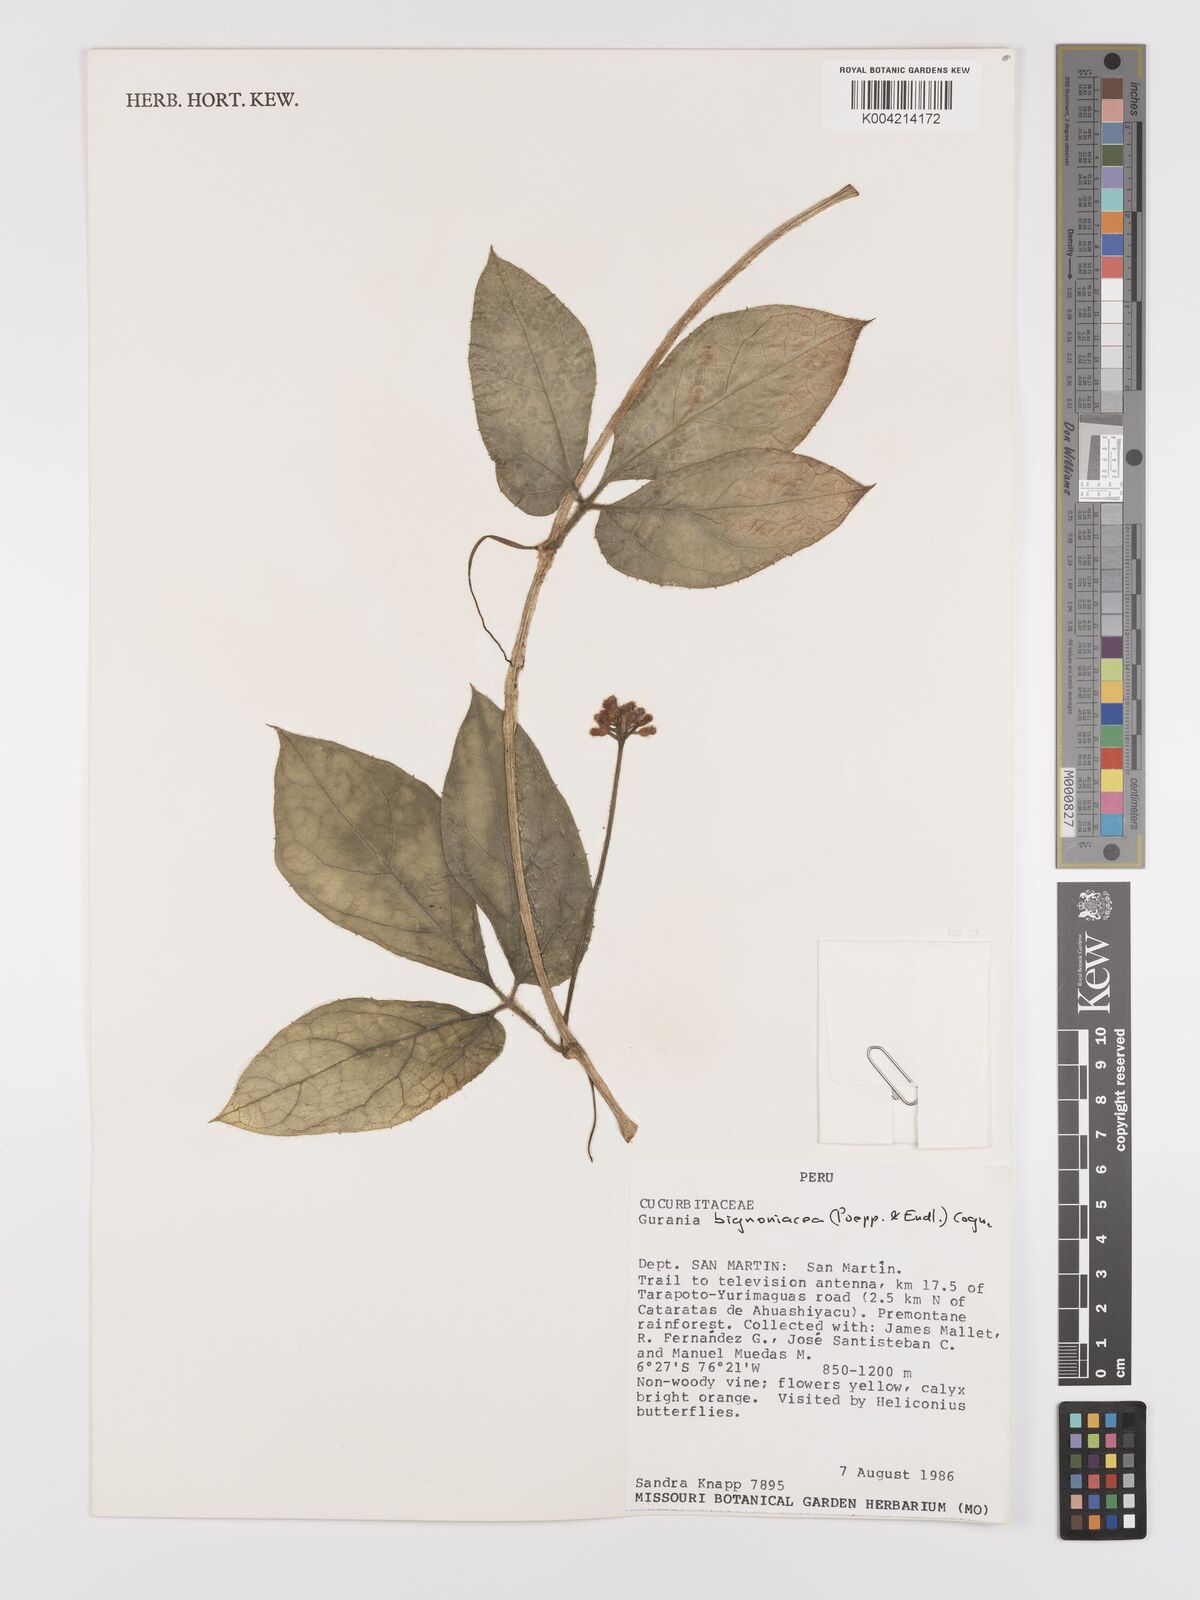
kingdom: Plantae
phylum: Tracheophyta
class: Magnoliopsida
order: Cucurbitales
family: Cucurbitaceae
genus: Gurania
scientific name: Gurania bignoniacea
